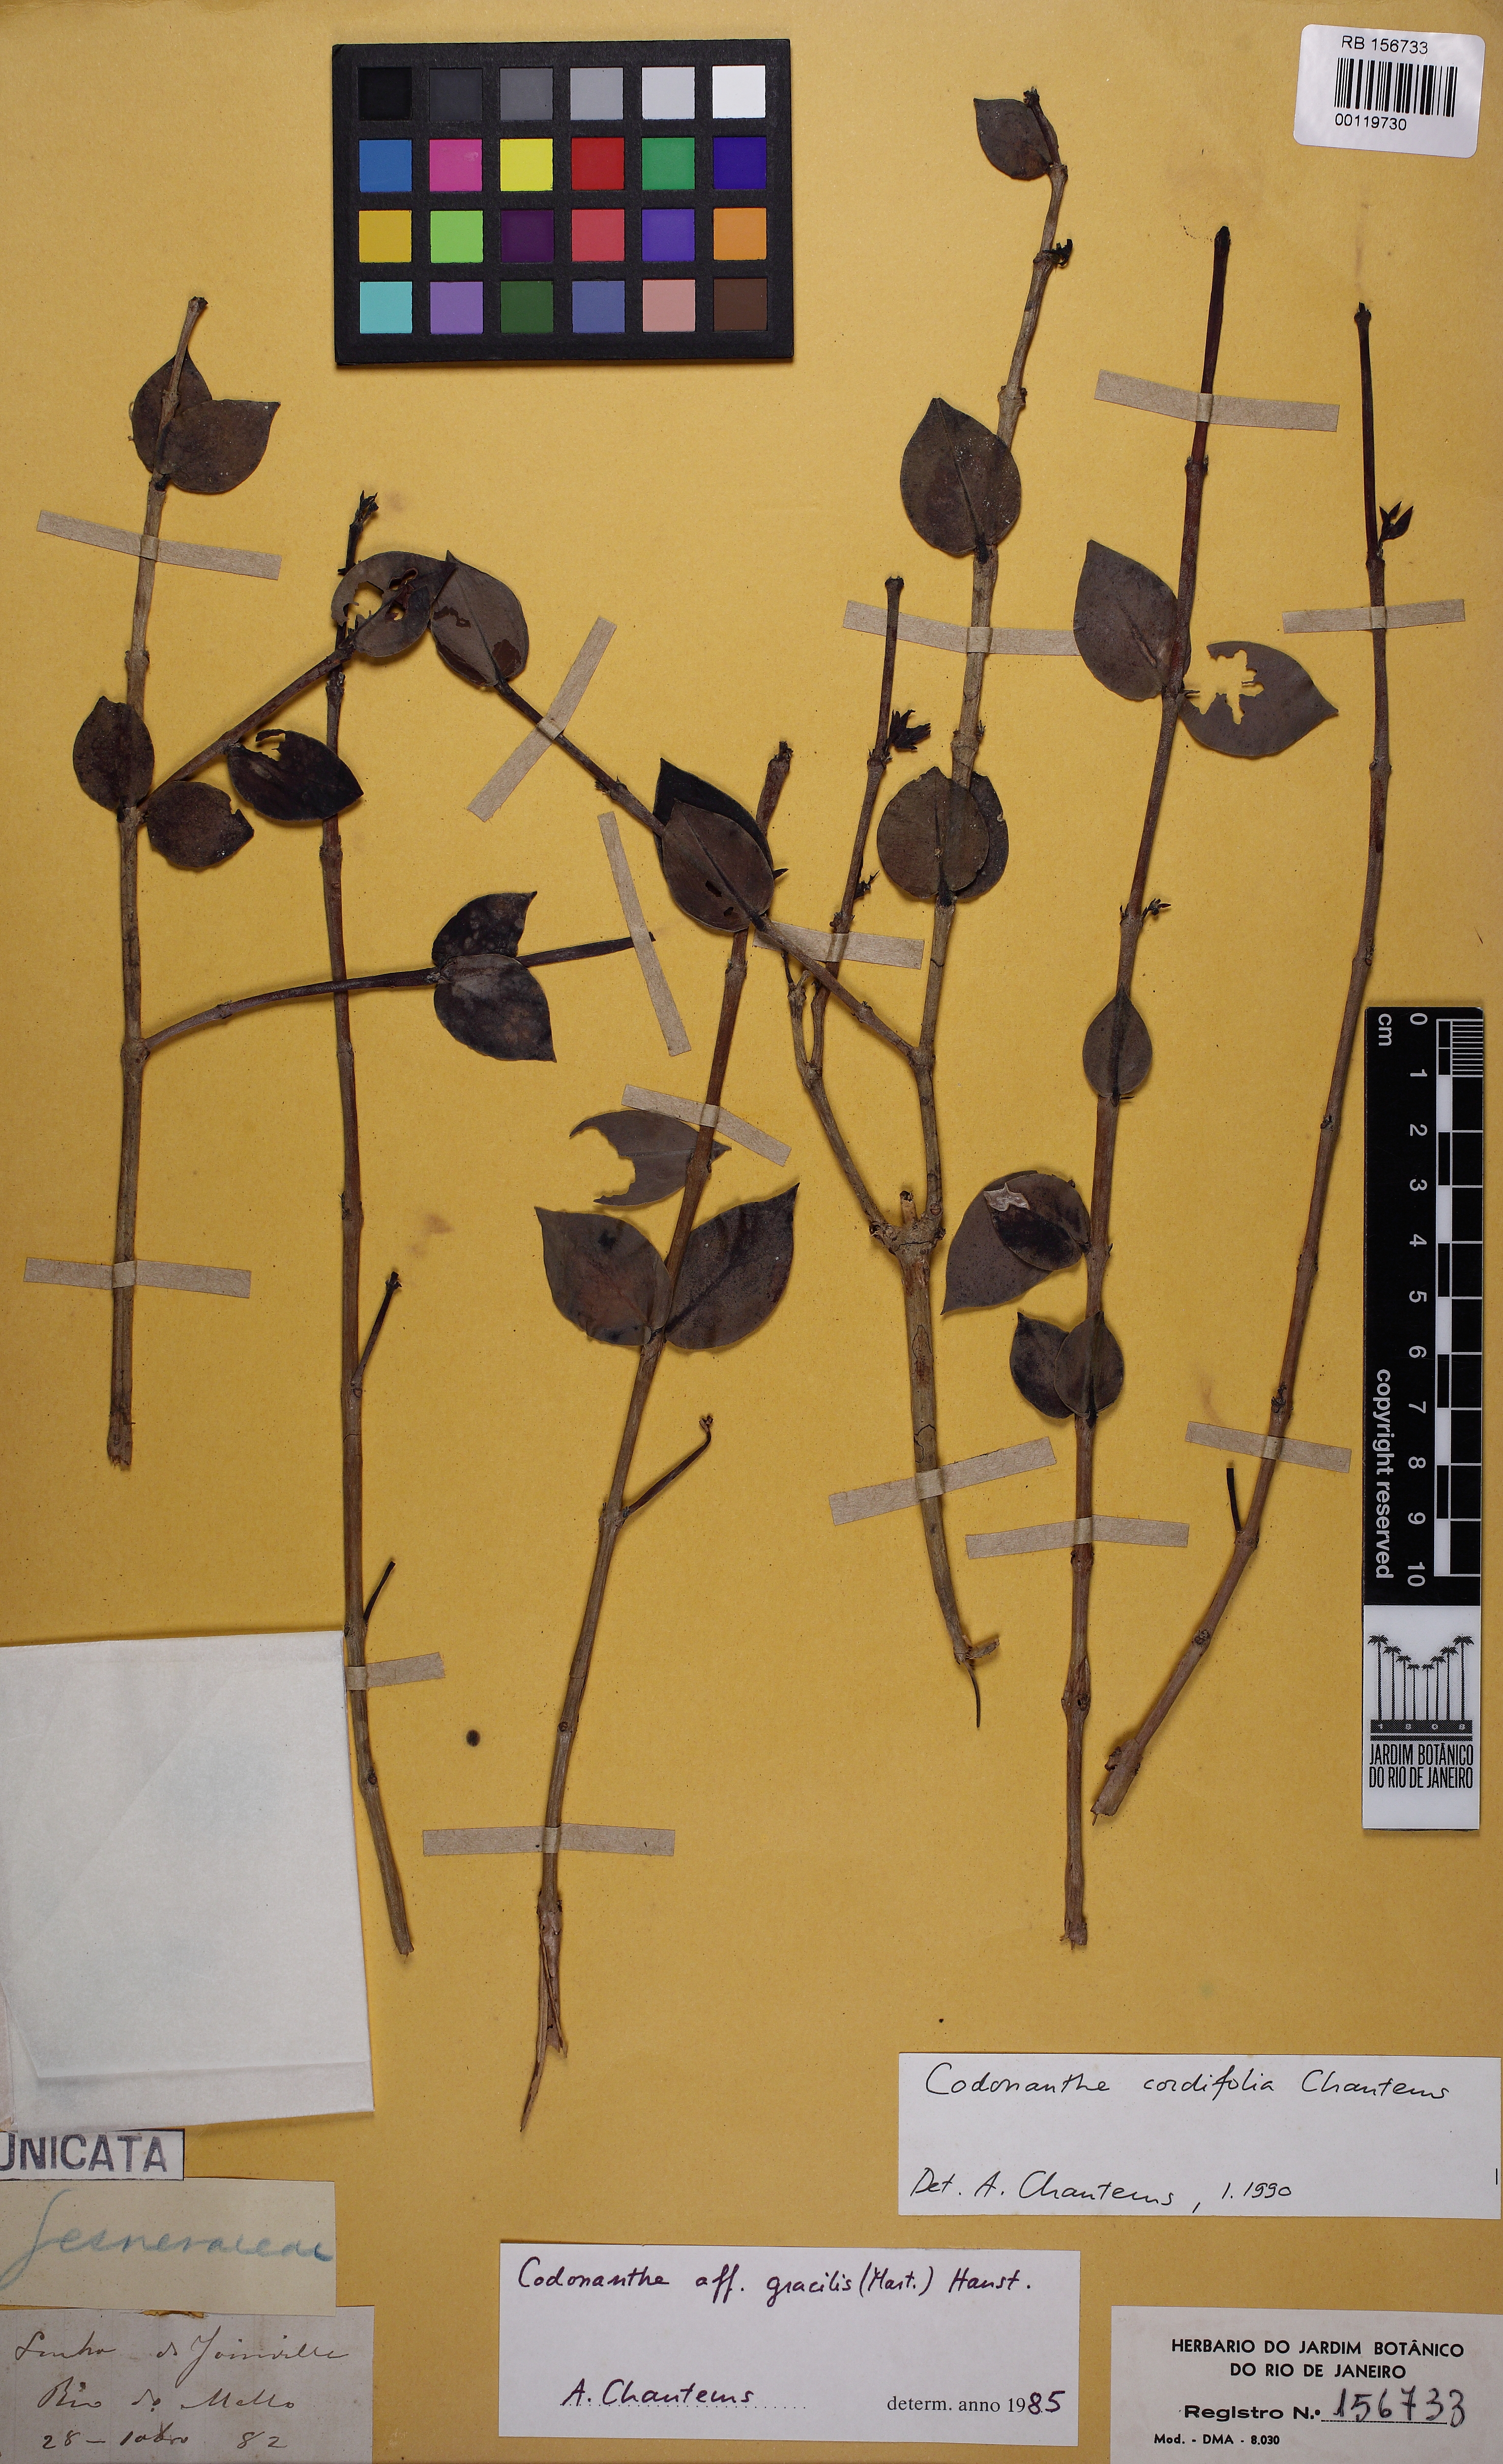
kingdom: Plantae
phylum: Tracheophyta
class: Magnoliopsida
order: Lamiales
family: Gesneriaceae
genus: Codonanthe
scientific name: Codonanthe cordifolia
